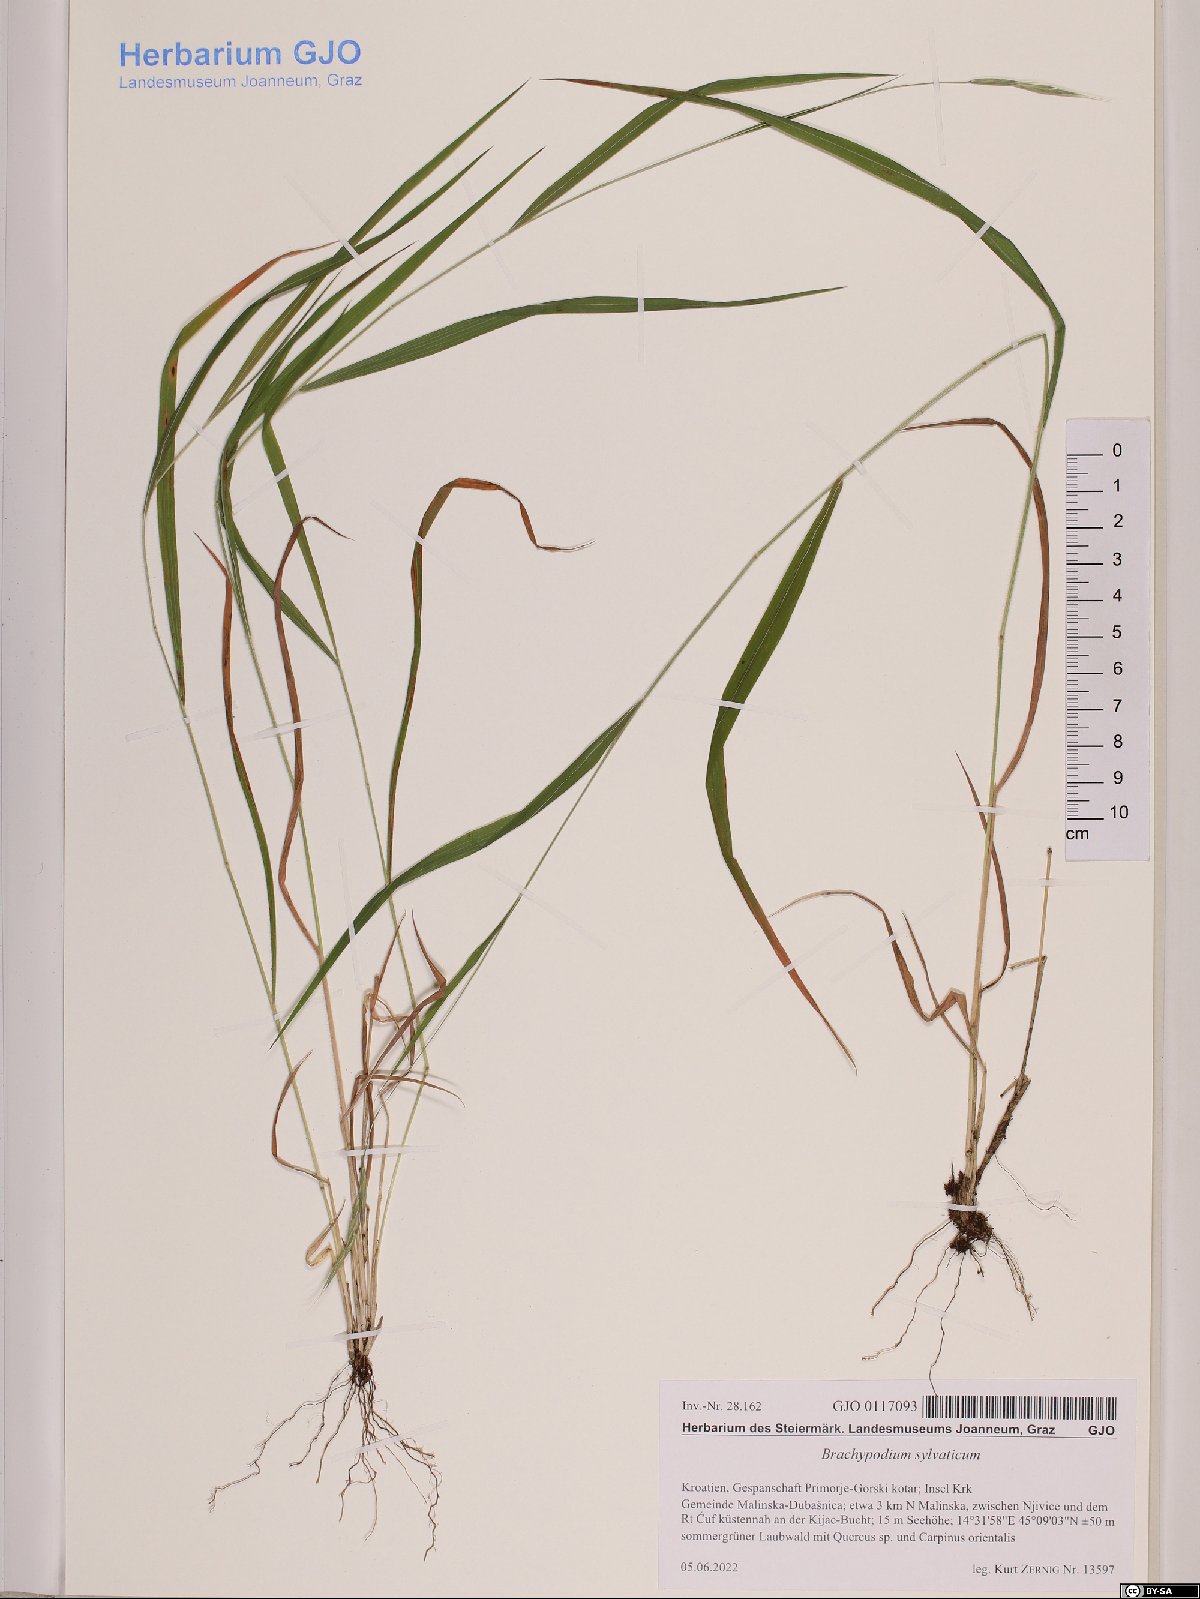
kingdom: Plantae
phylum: Tracheophyta
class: Liliopsida
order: Poales
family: Poaceae
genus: Brachypodium
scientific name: Brachypodium sylvaticum
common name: False-brome
